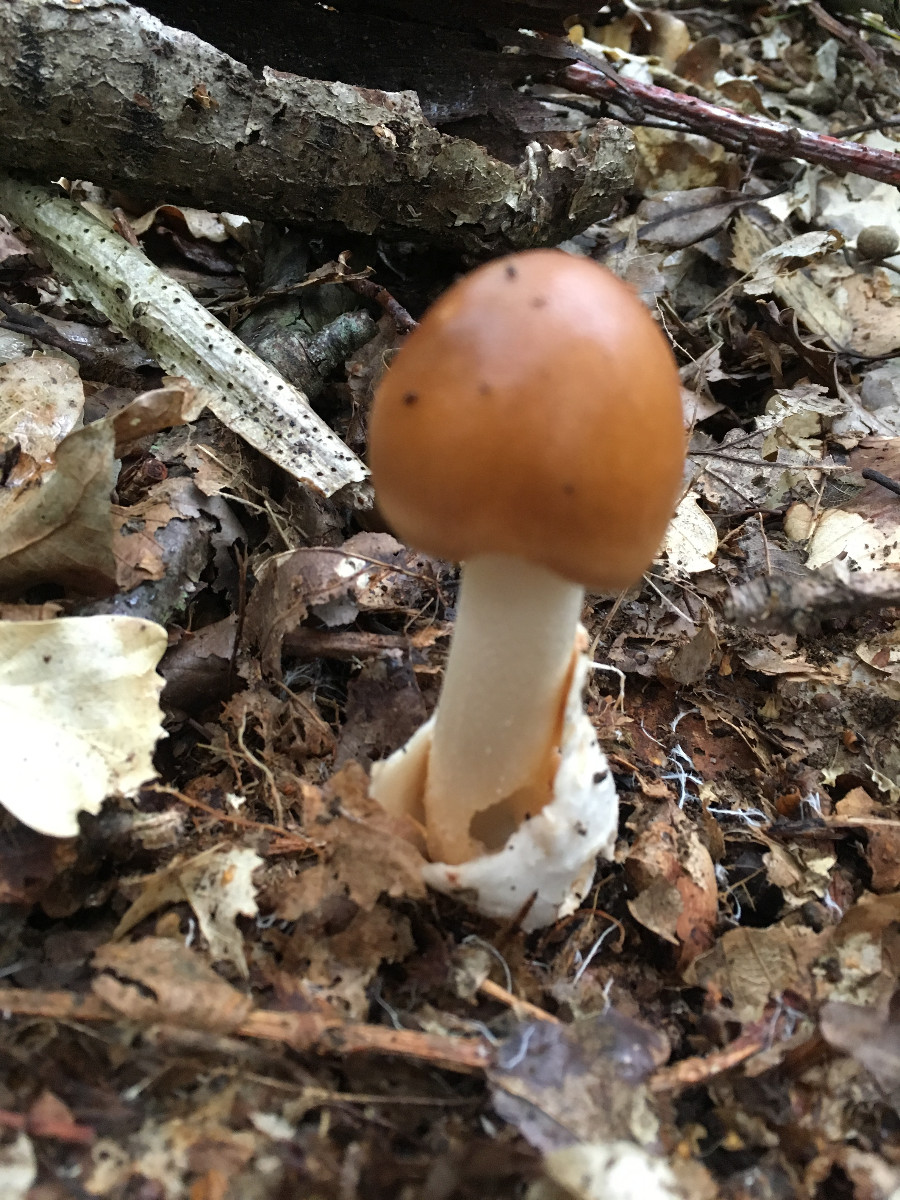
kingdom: Fungi
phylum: Basidiomycota
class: Agaricomycetes
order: Agaricales
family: Amanitaceae
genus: Amanita
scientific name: Amanita fulva
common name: brun kam-fluesvamp
